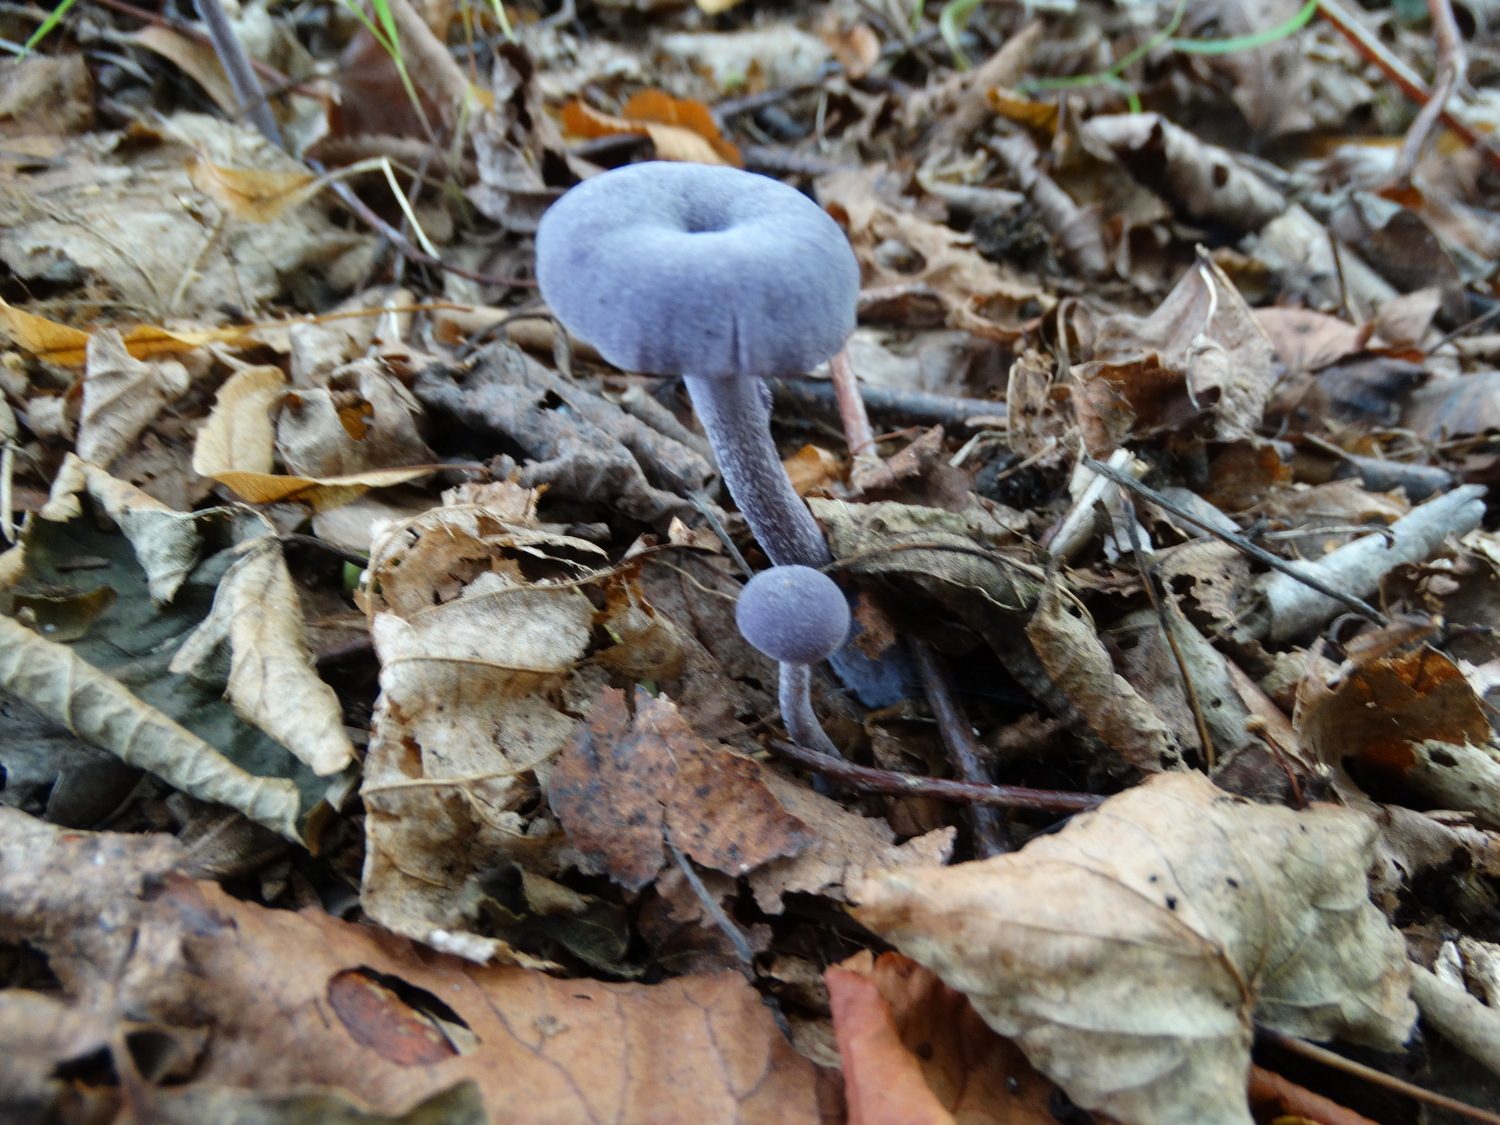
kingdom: Fungi
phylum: Basidiomycota
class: Agaricomycetes
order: Agaricales
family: Hydnangiaceae
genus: Laccaria
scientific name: Laccaria amethystina
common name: violet ametysthat
